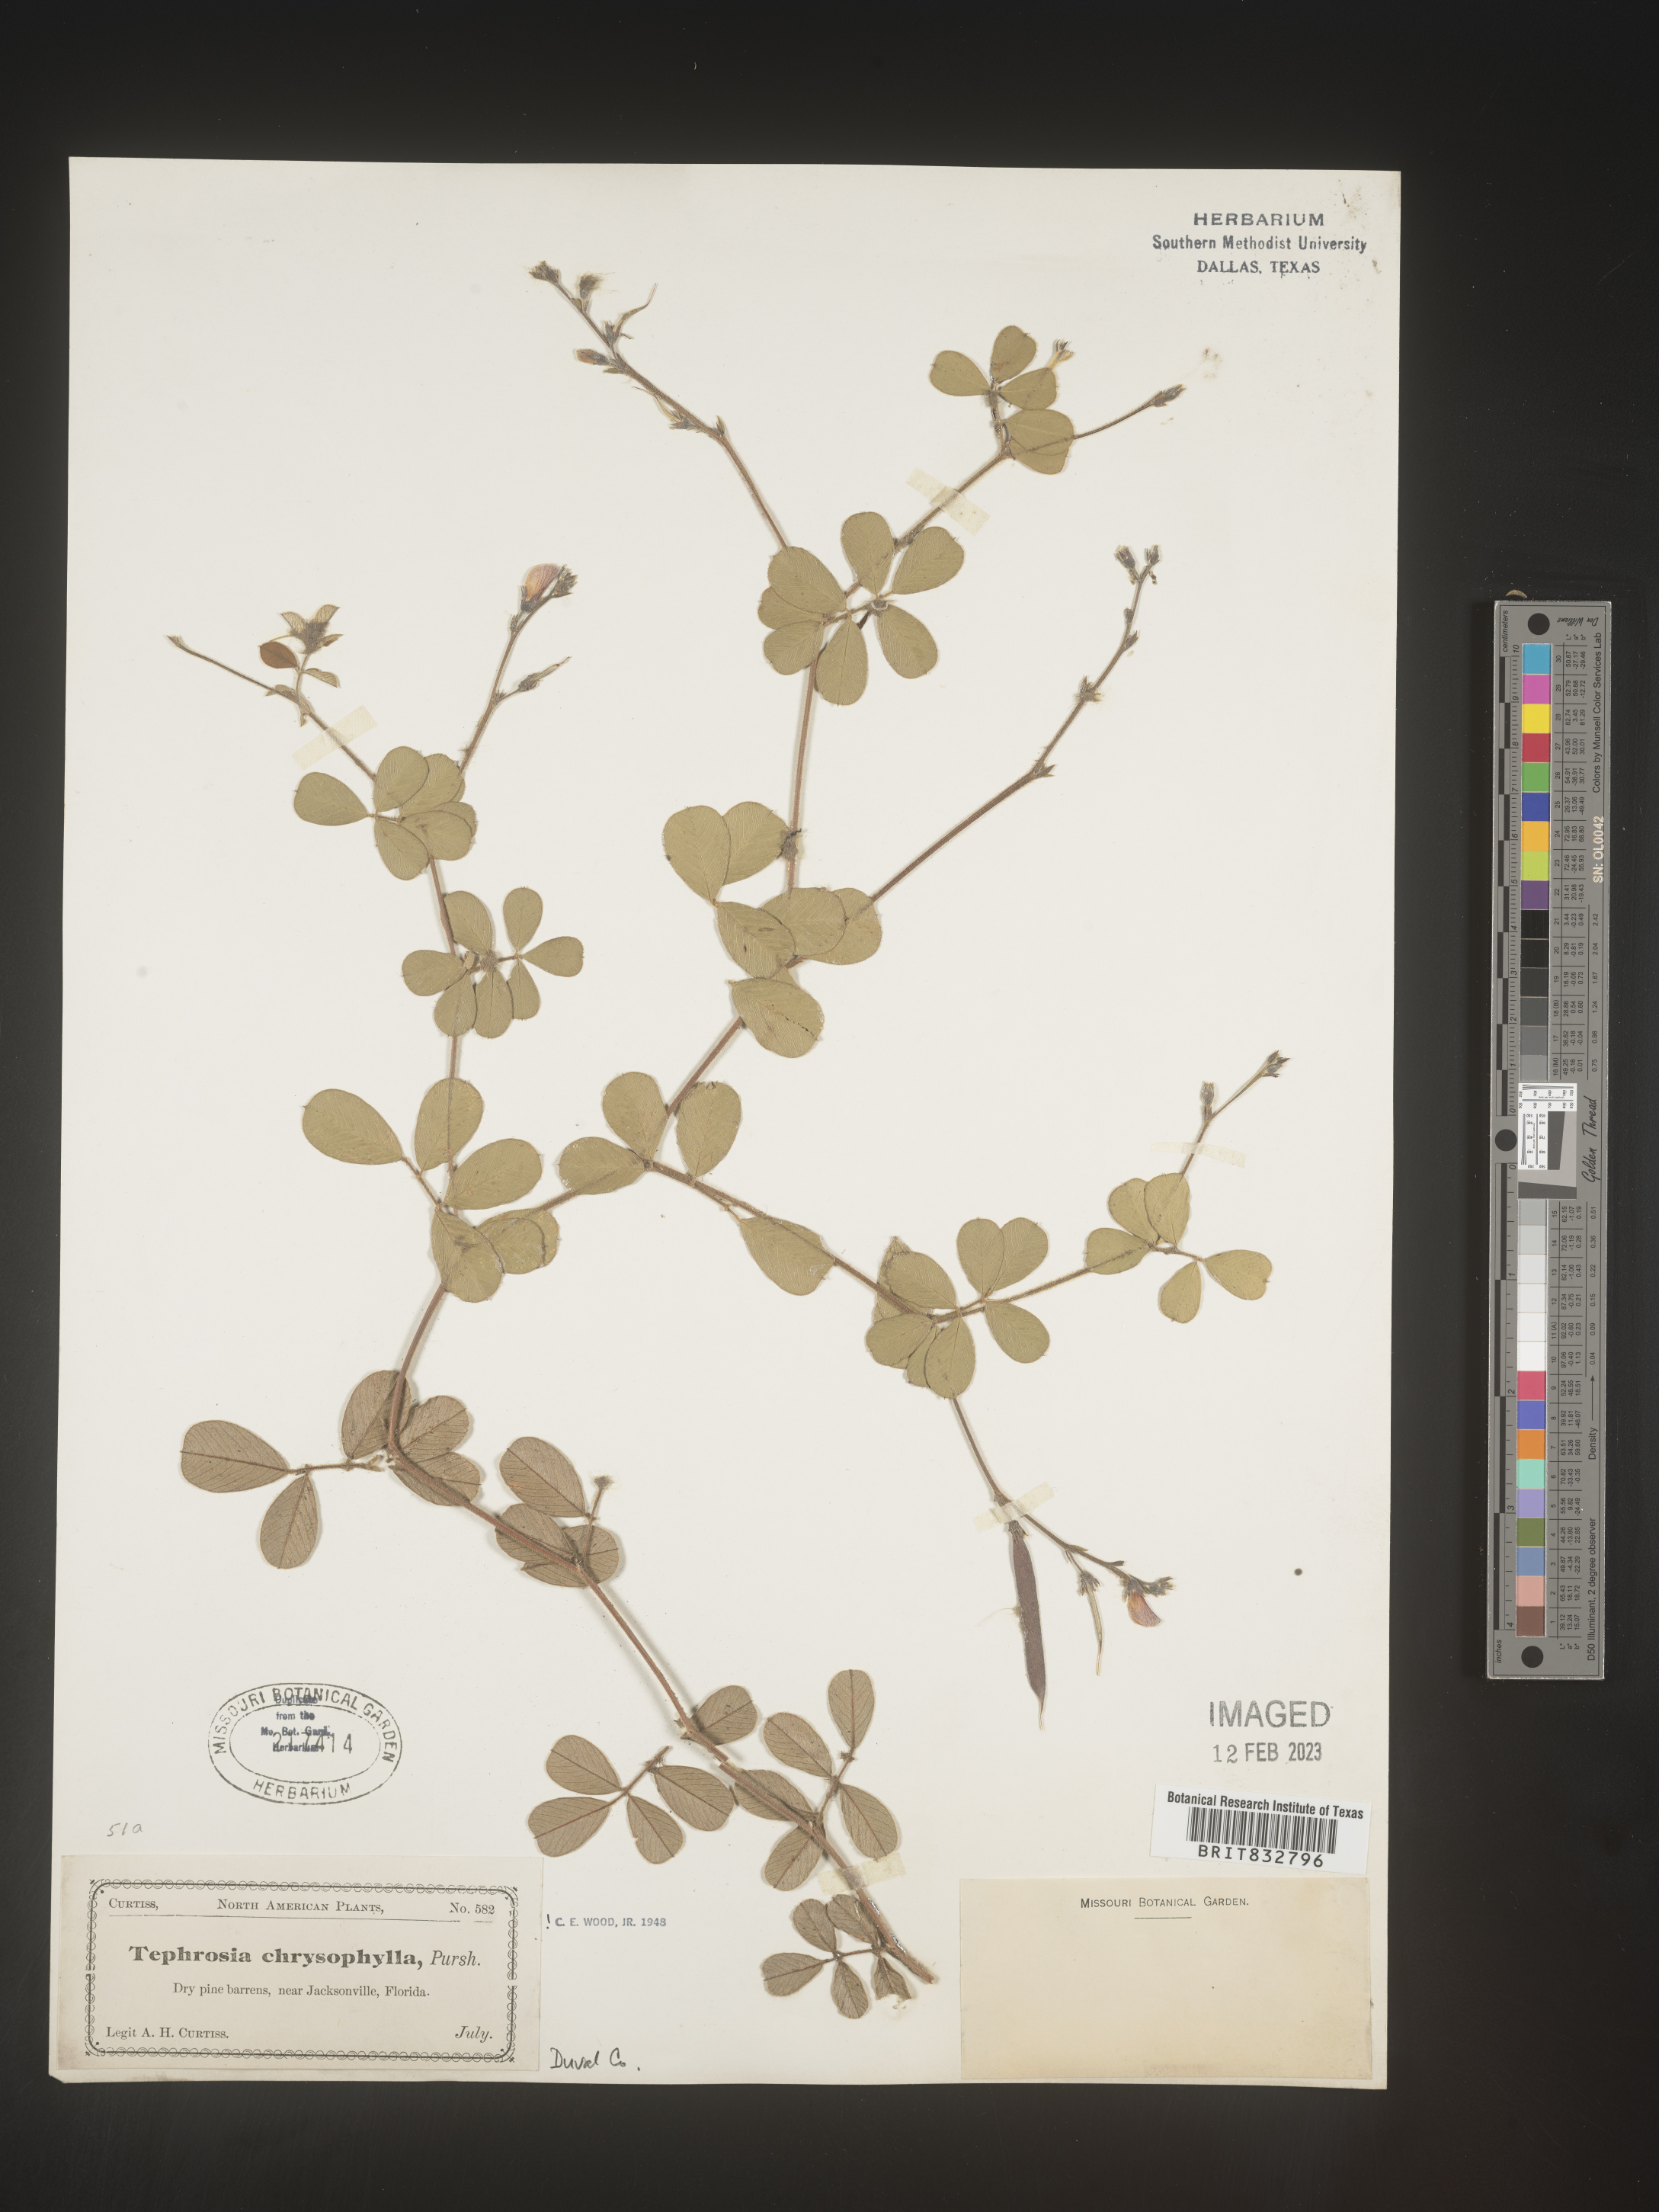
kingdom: Plantae
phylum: Tracheophyta
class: Magnoliopsida
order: Fabales
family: Fabaceae
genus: Tephrosia
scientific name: Tephrosia chrysophylla
